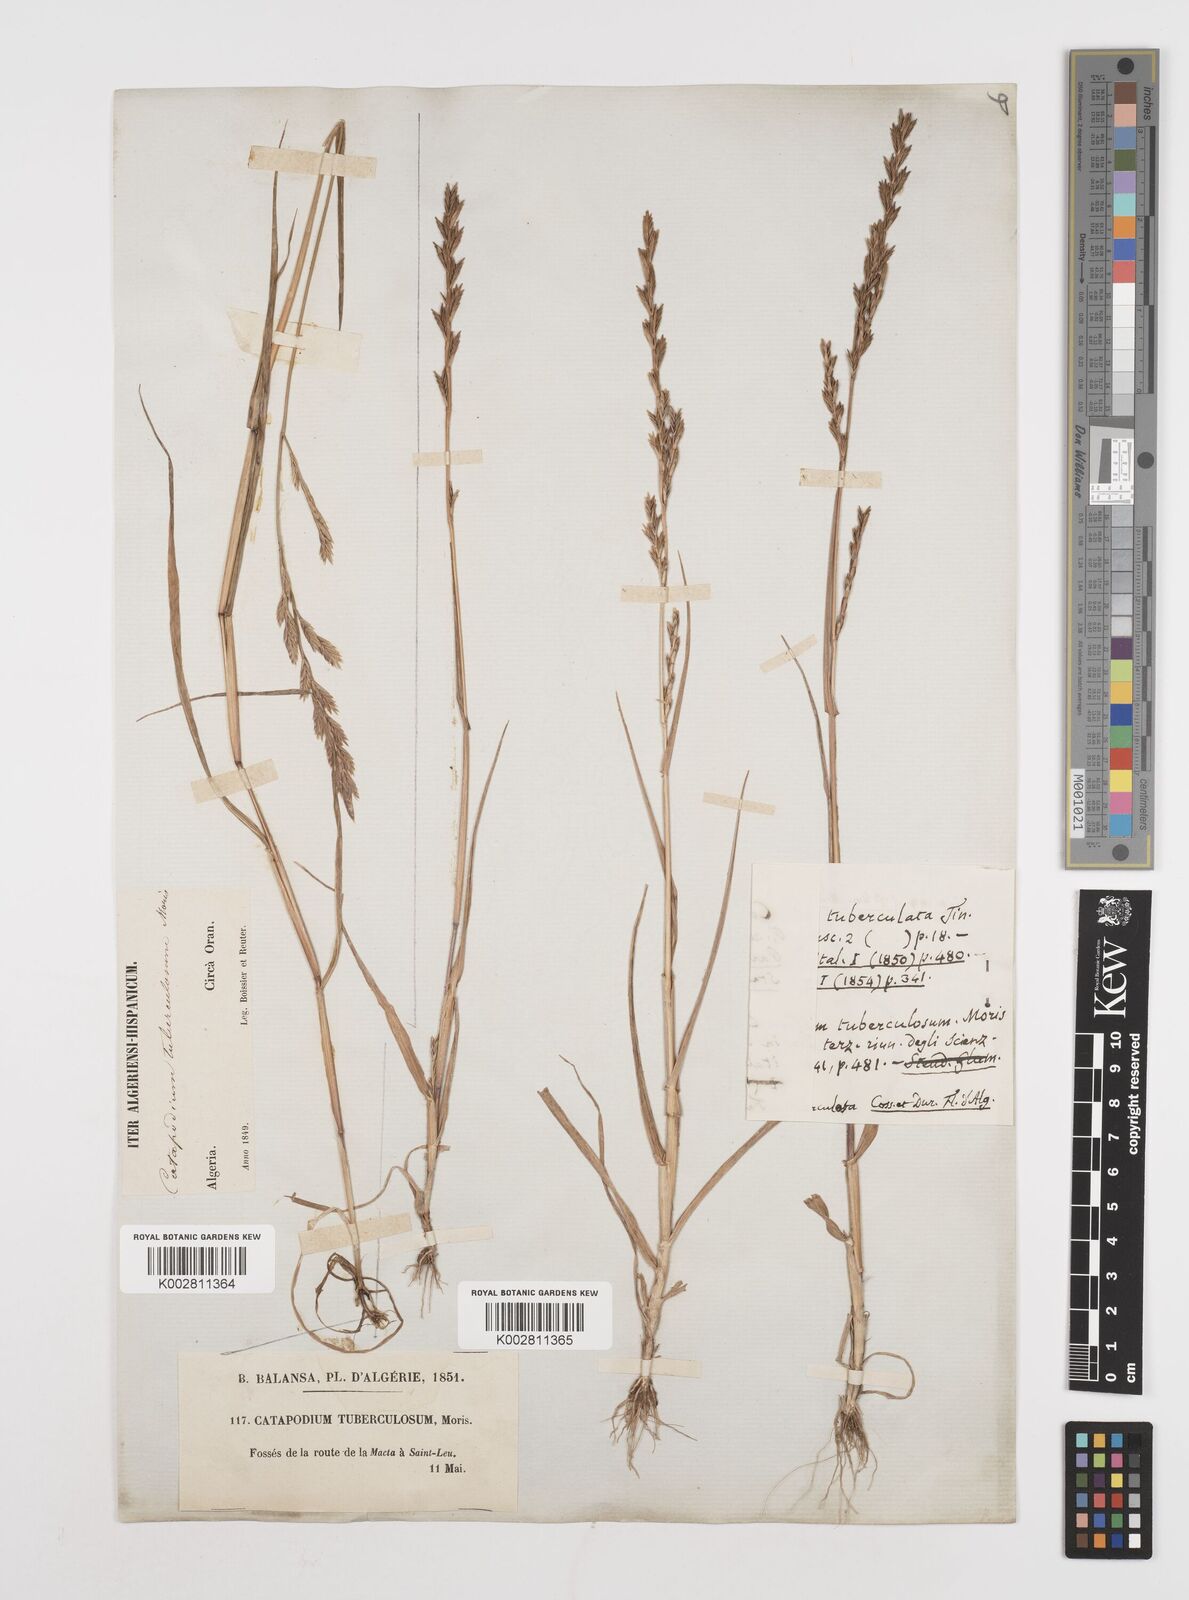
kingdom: Plantae
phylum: Tracheophyta
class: Liliopsida
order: Poales
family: Poaceae
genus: Castellia
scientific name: Castellia tuberculosa
